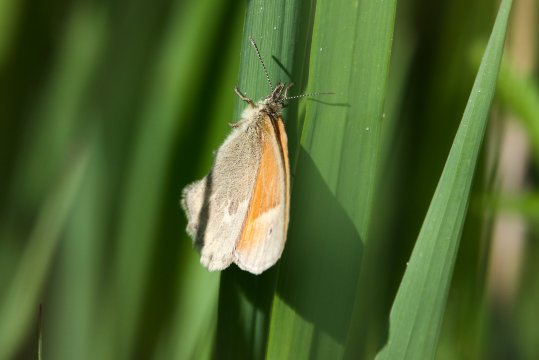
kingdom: Animalia
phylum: Arthropoda
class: Insecta
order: Lepidoptera
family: Nymphalidae
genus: Coenonympha
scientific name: Coenonympha tullia
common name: Large Heath
